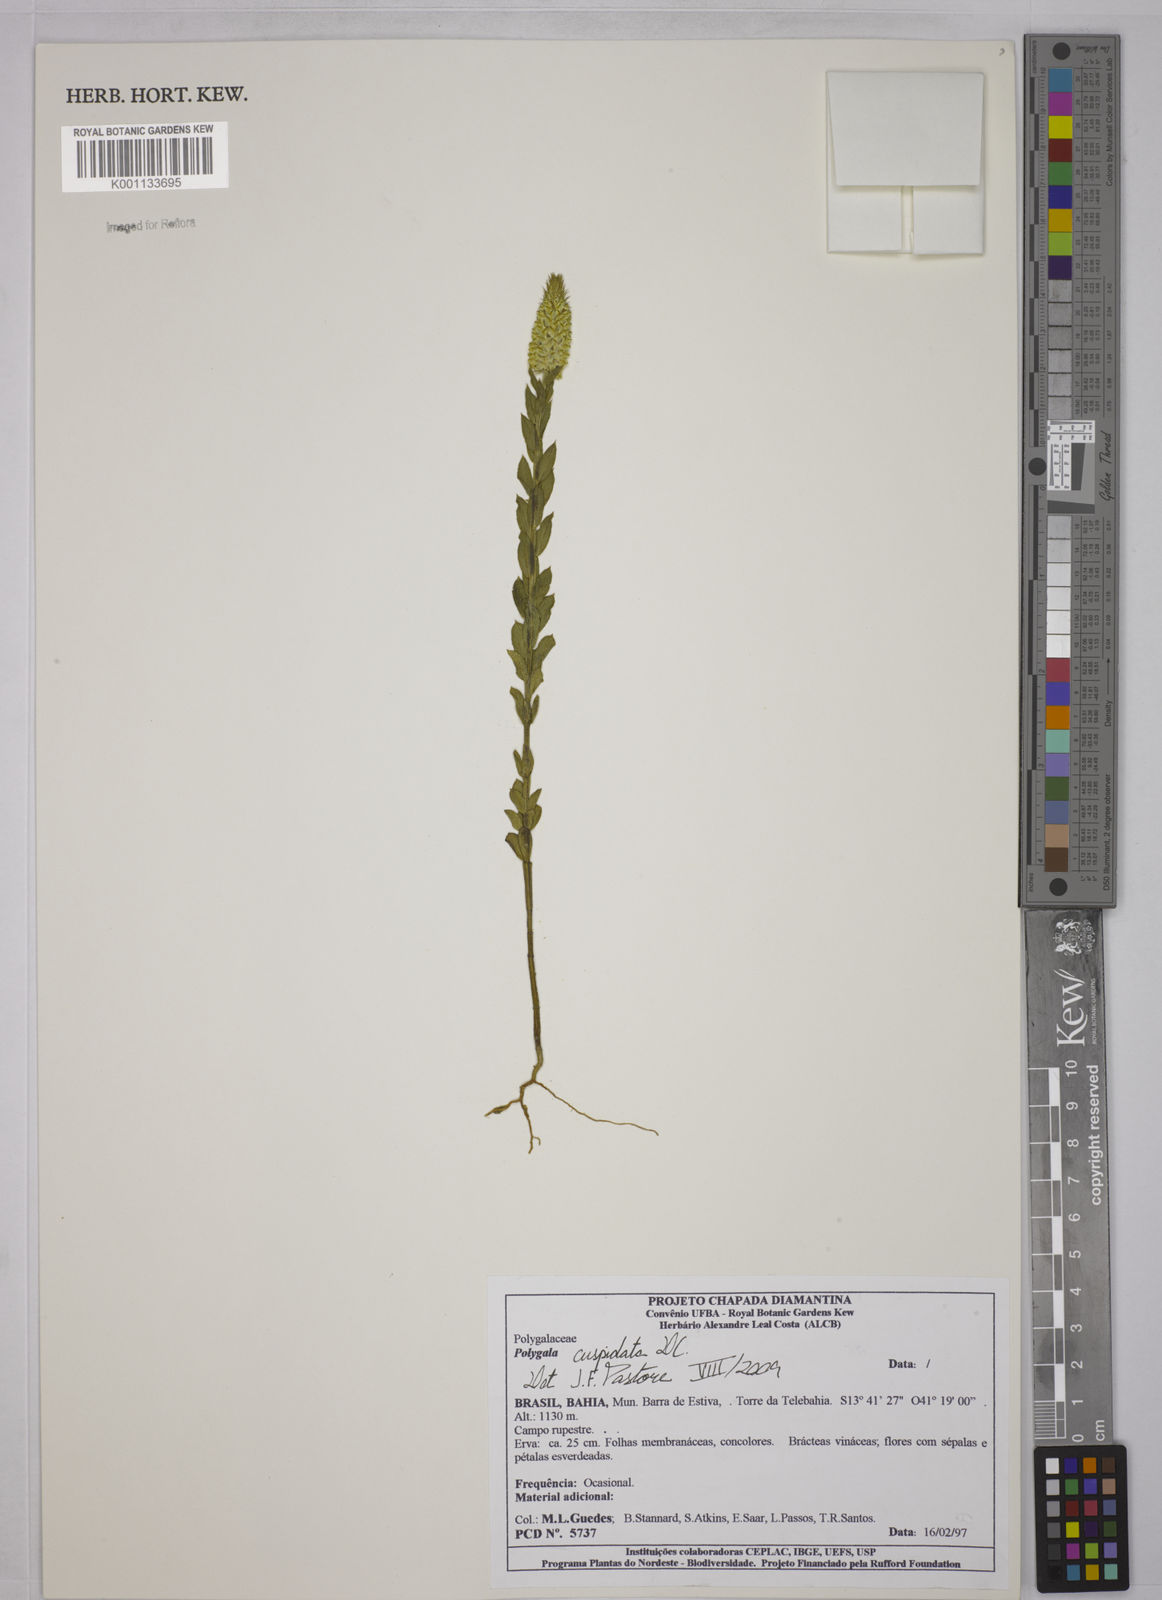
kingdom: Plantae
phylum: Tracheophyta
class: Magnoliopsida
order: Fabales
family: Polygalaceae
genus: Polygala
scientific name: Polygala cuspidata
